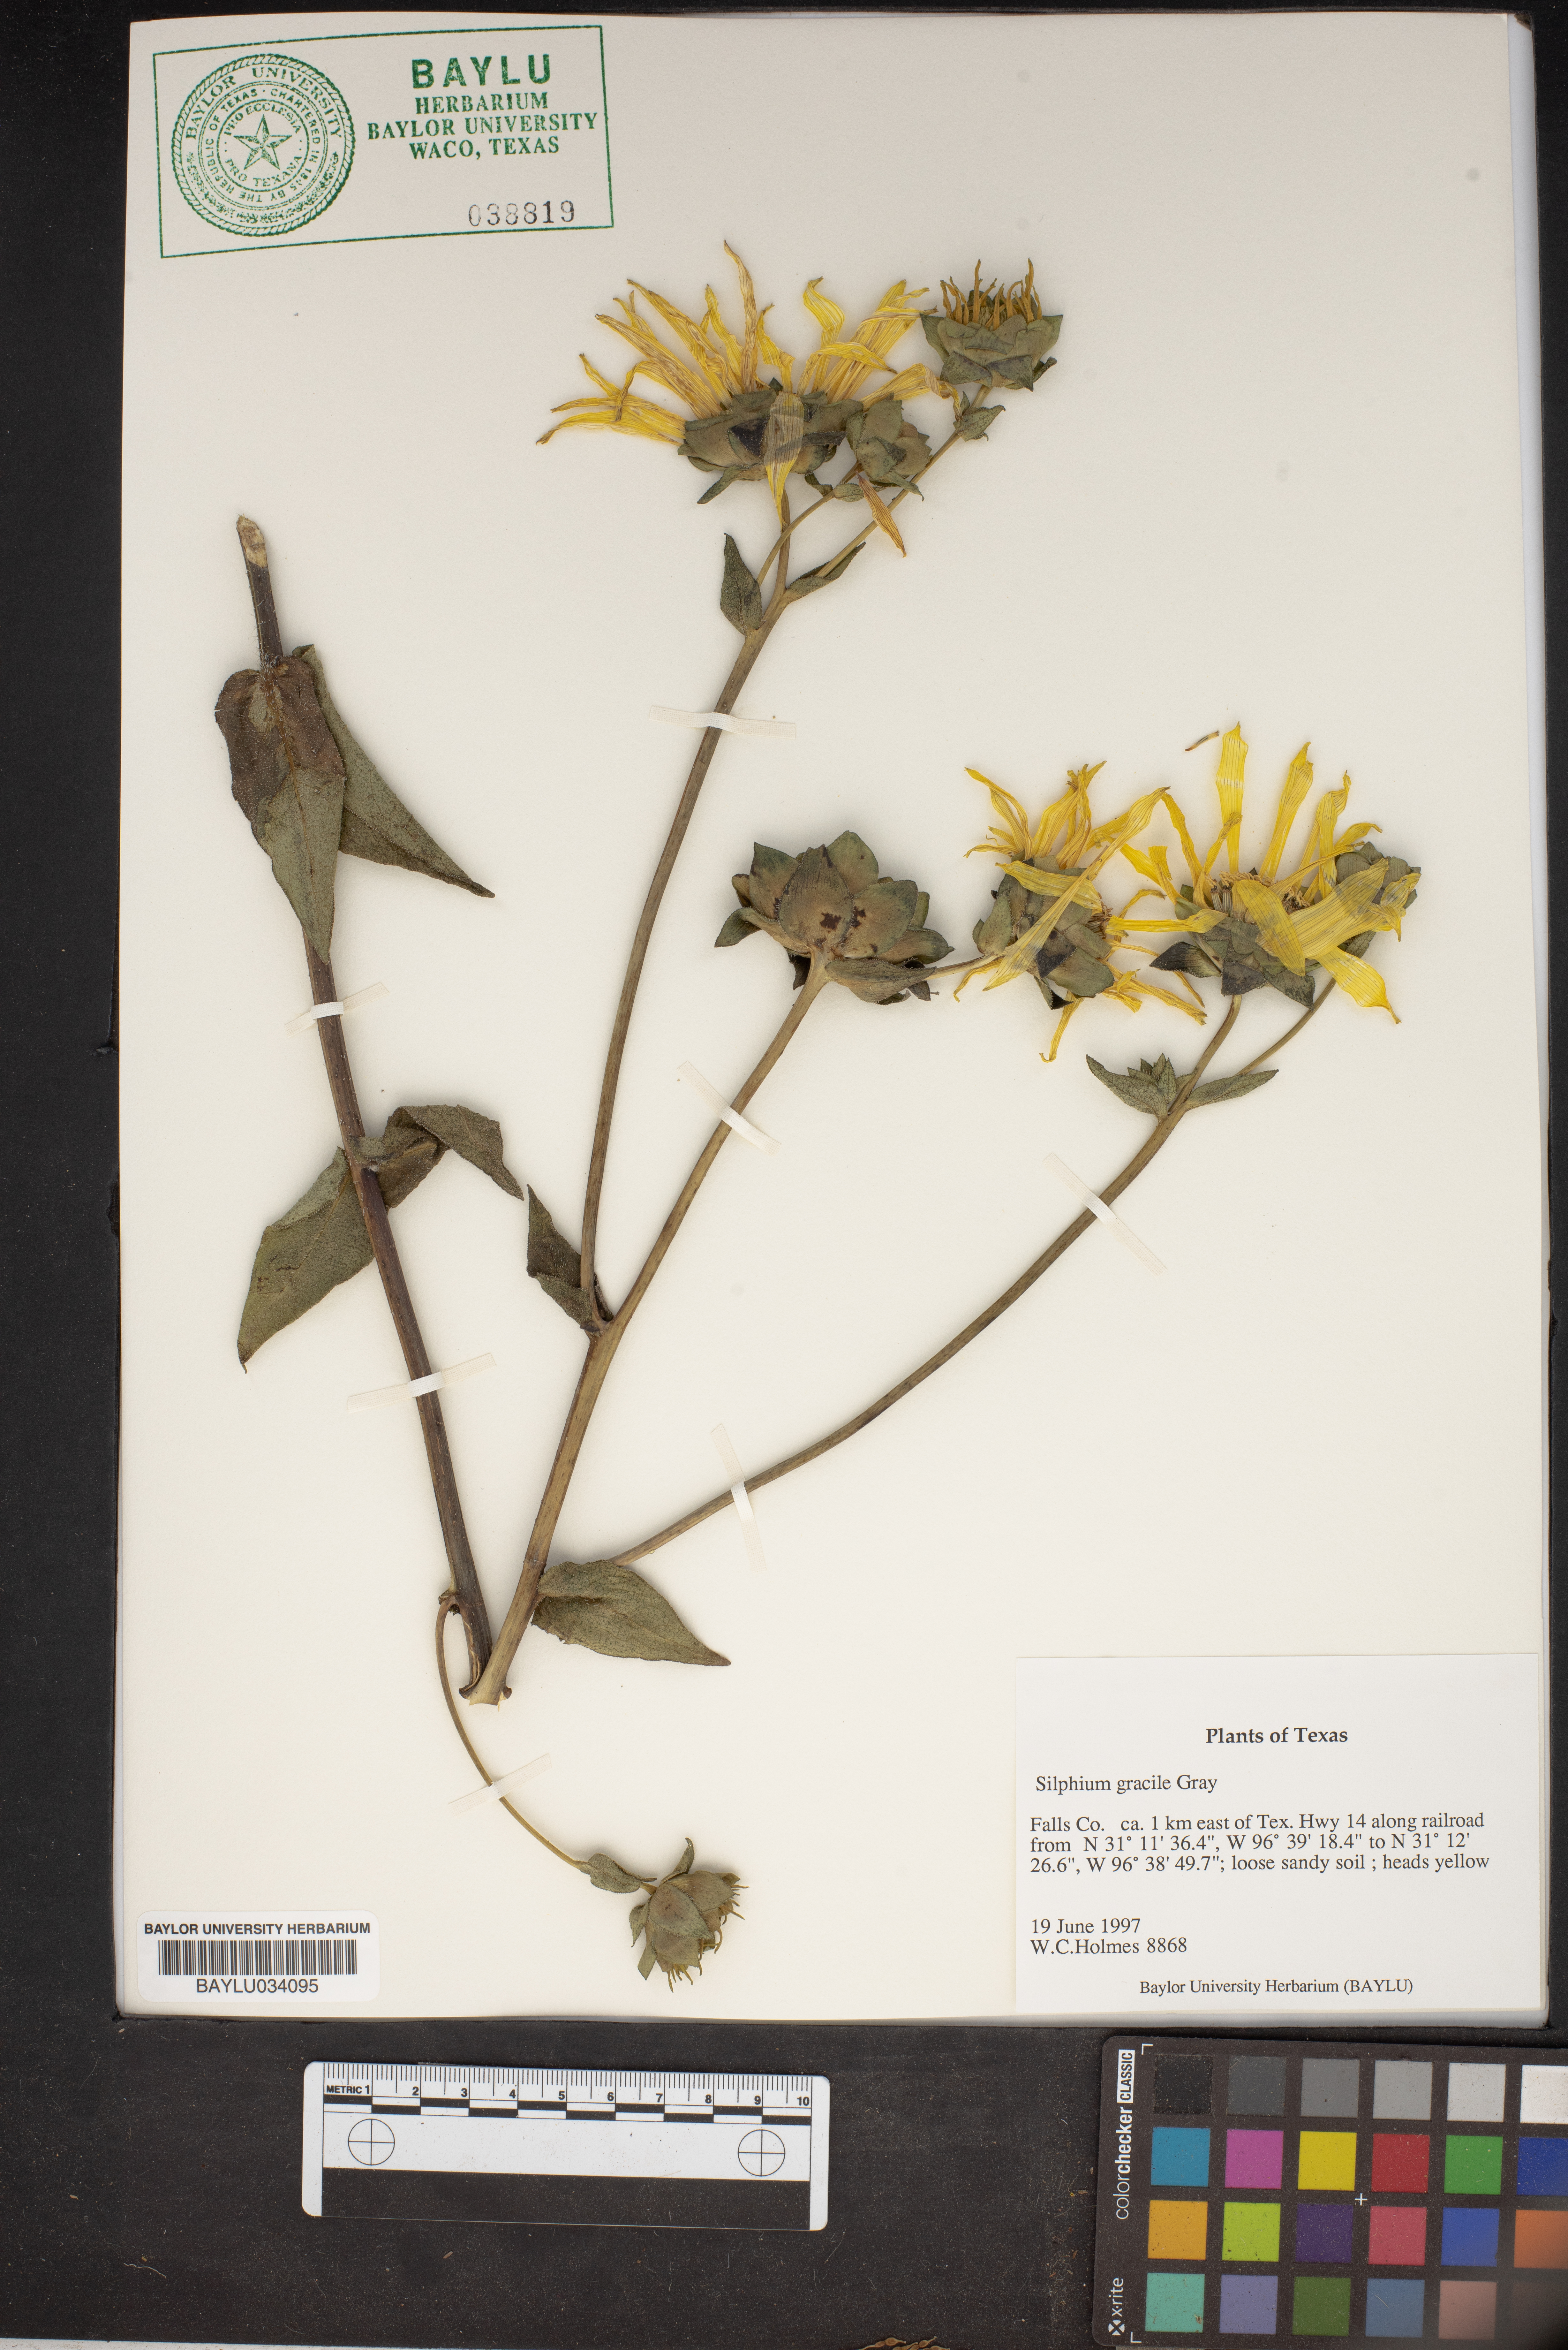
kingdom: Plantae
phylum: Tracheophyta
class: Magnoliopsida
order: Asterales
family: Asteraceae
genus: Silphium
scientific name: Silphium radula
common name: Roughleaf rosinweed
